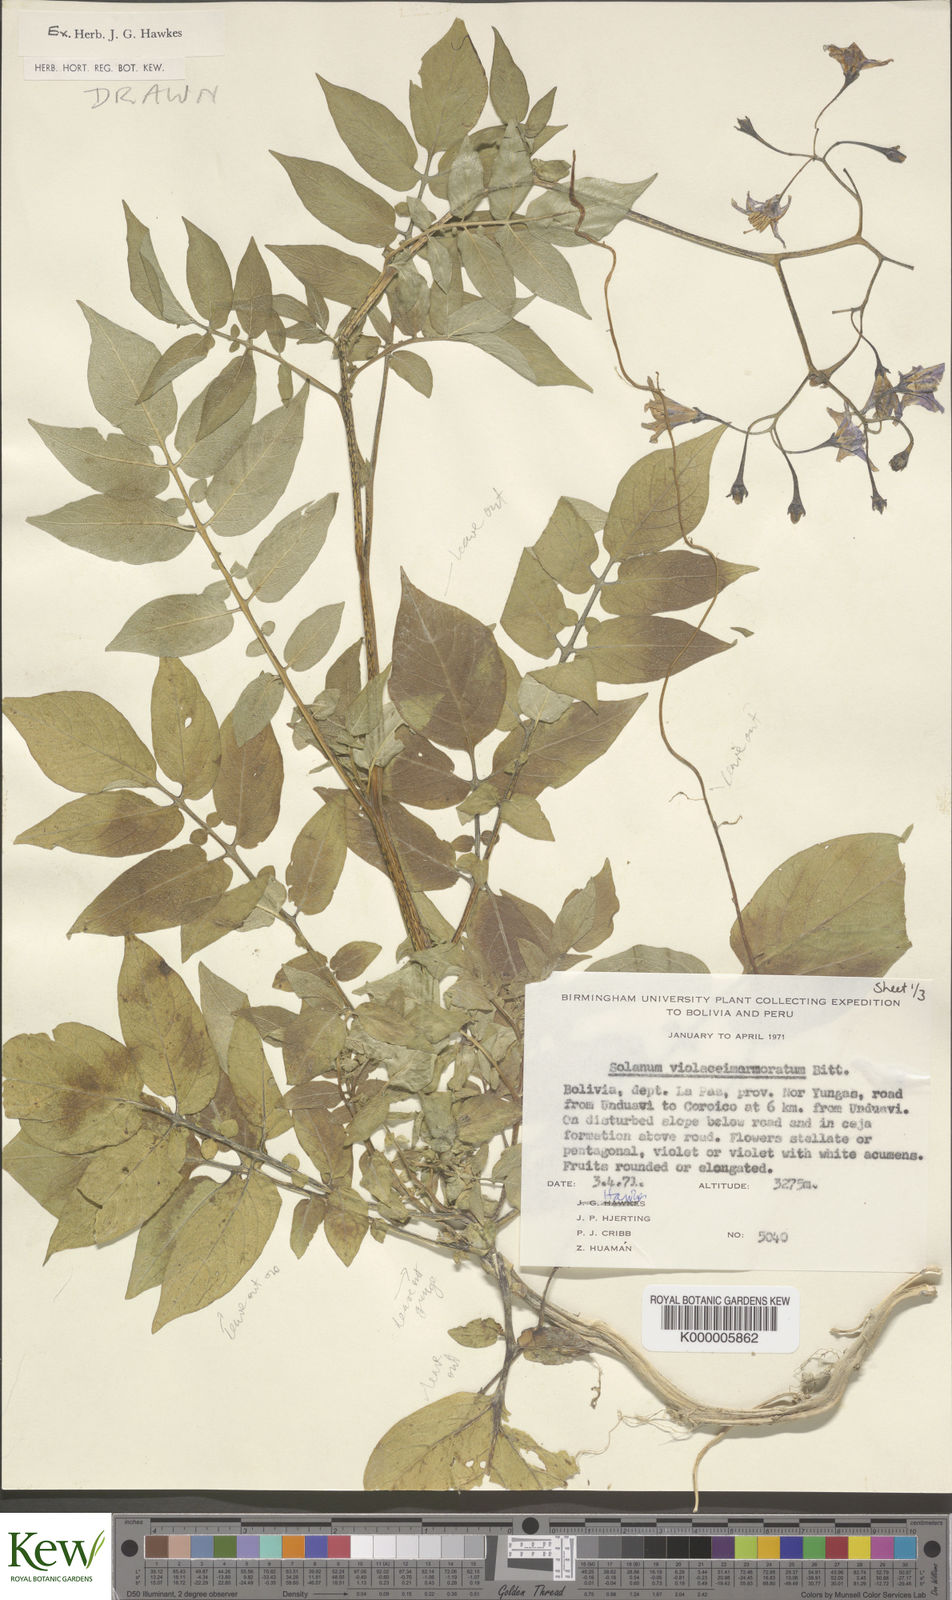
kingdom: Plantae
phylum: Tracheophyta
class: Magnoliopsida
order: Solanales
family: Solanaceae
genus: Solanum
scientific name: Solanum violaceimarmoratum
